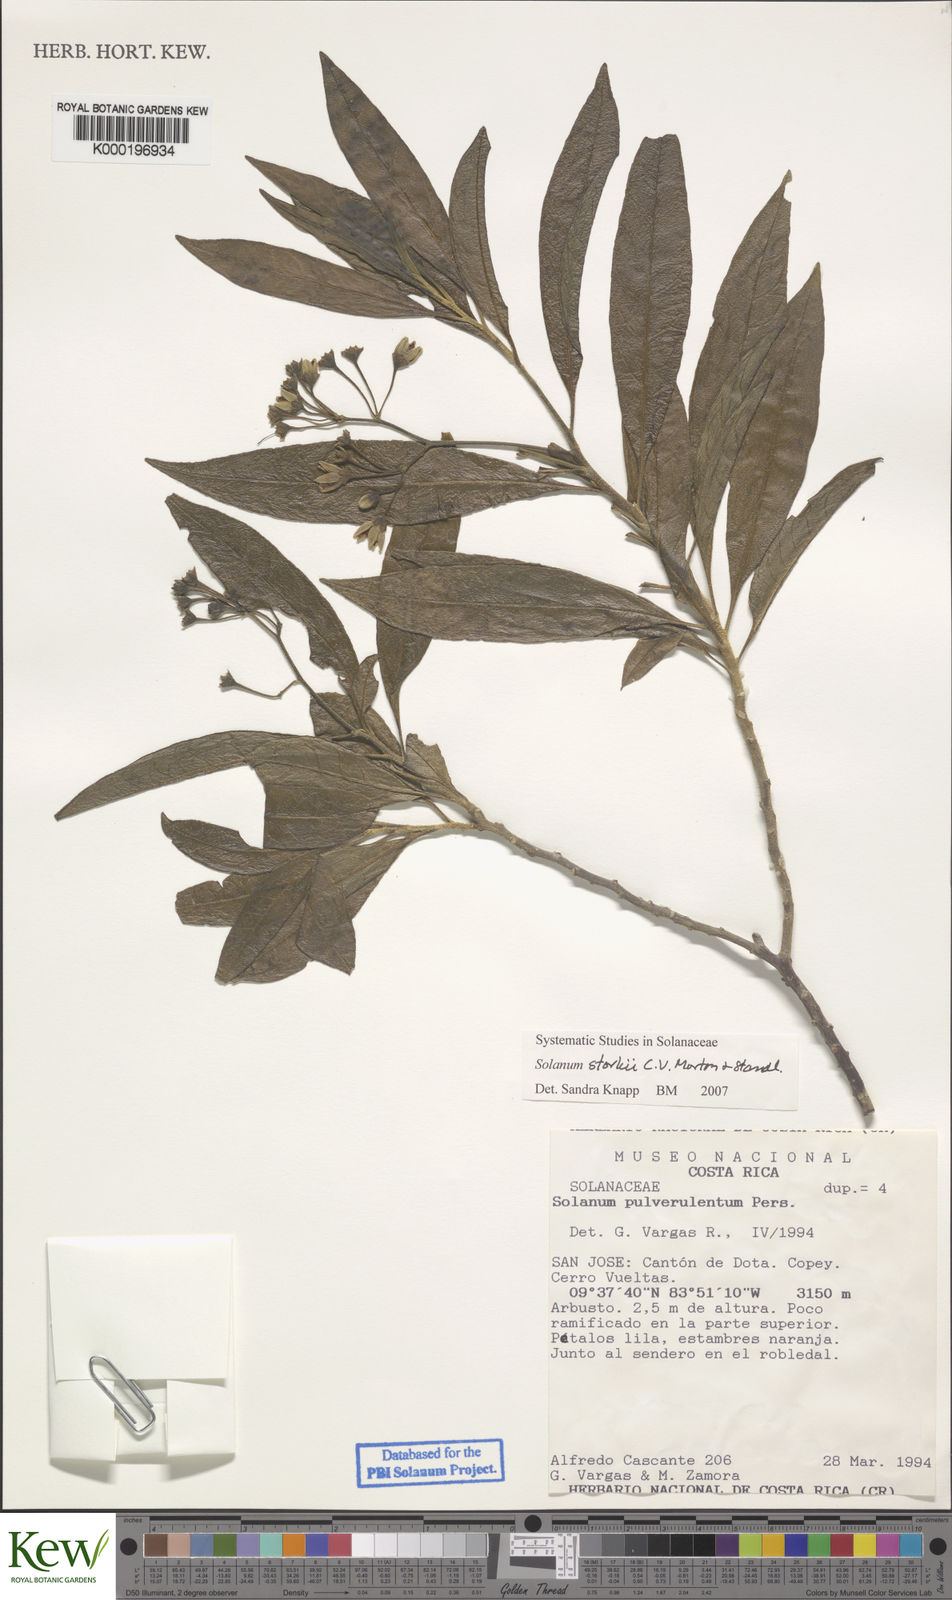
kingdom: Plantae
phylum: Tracheophyta
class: Magnoliopsida
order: Solanales
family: Solanaceae
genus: Solanum
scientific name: Solanum storkii
